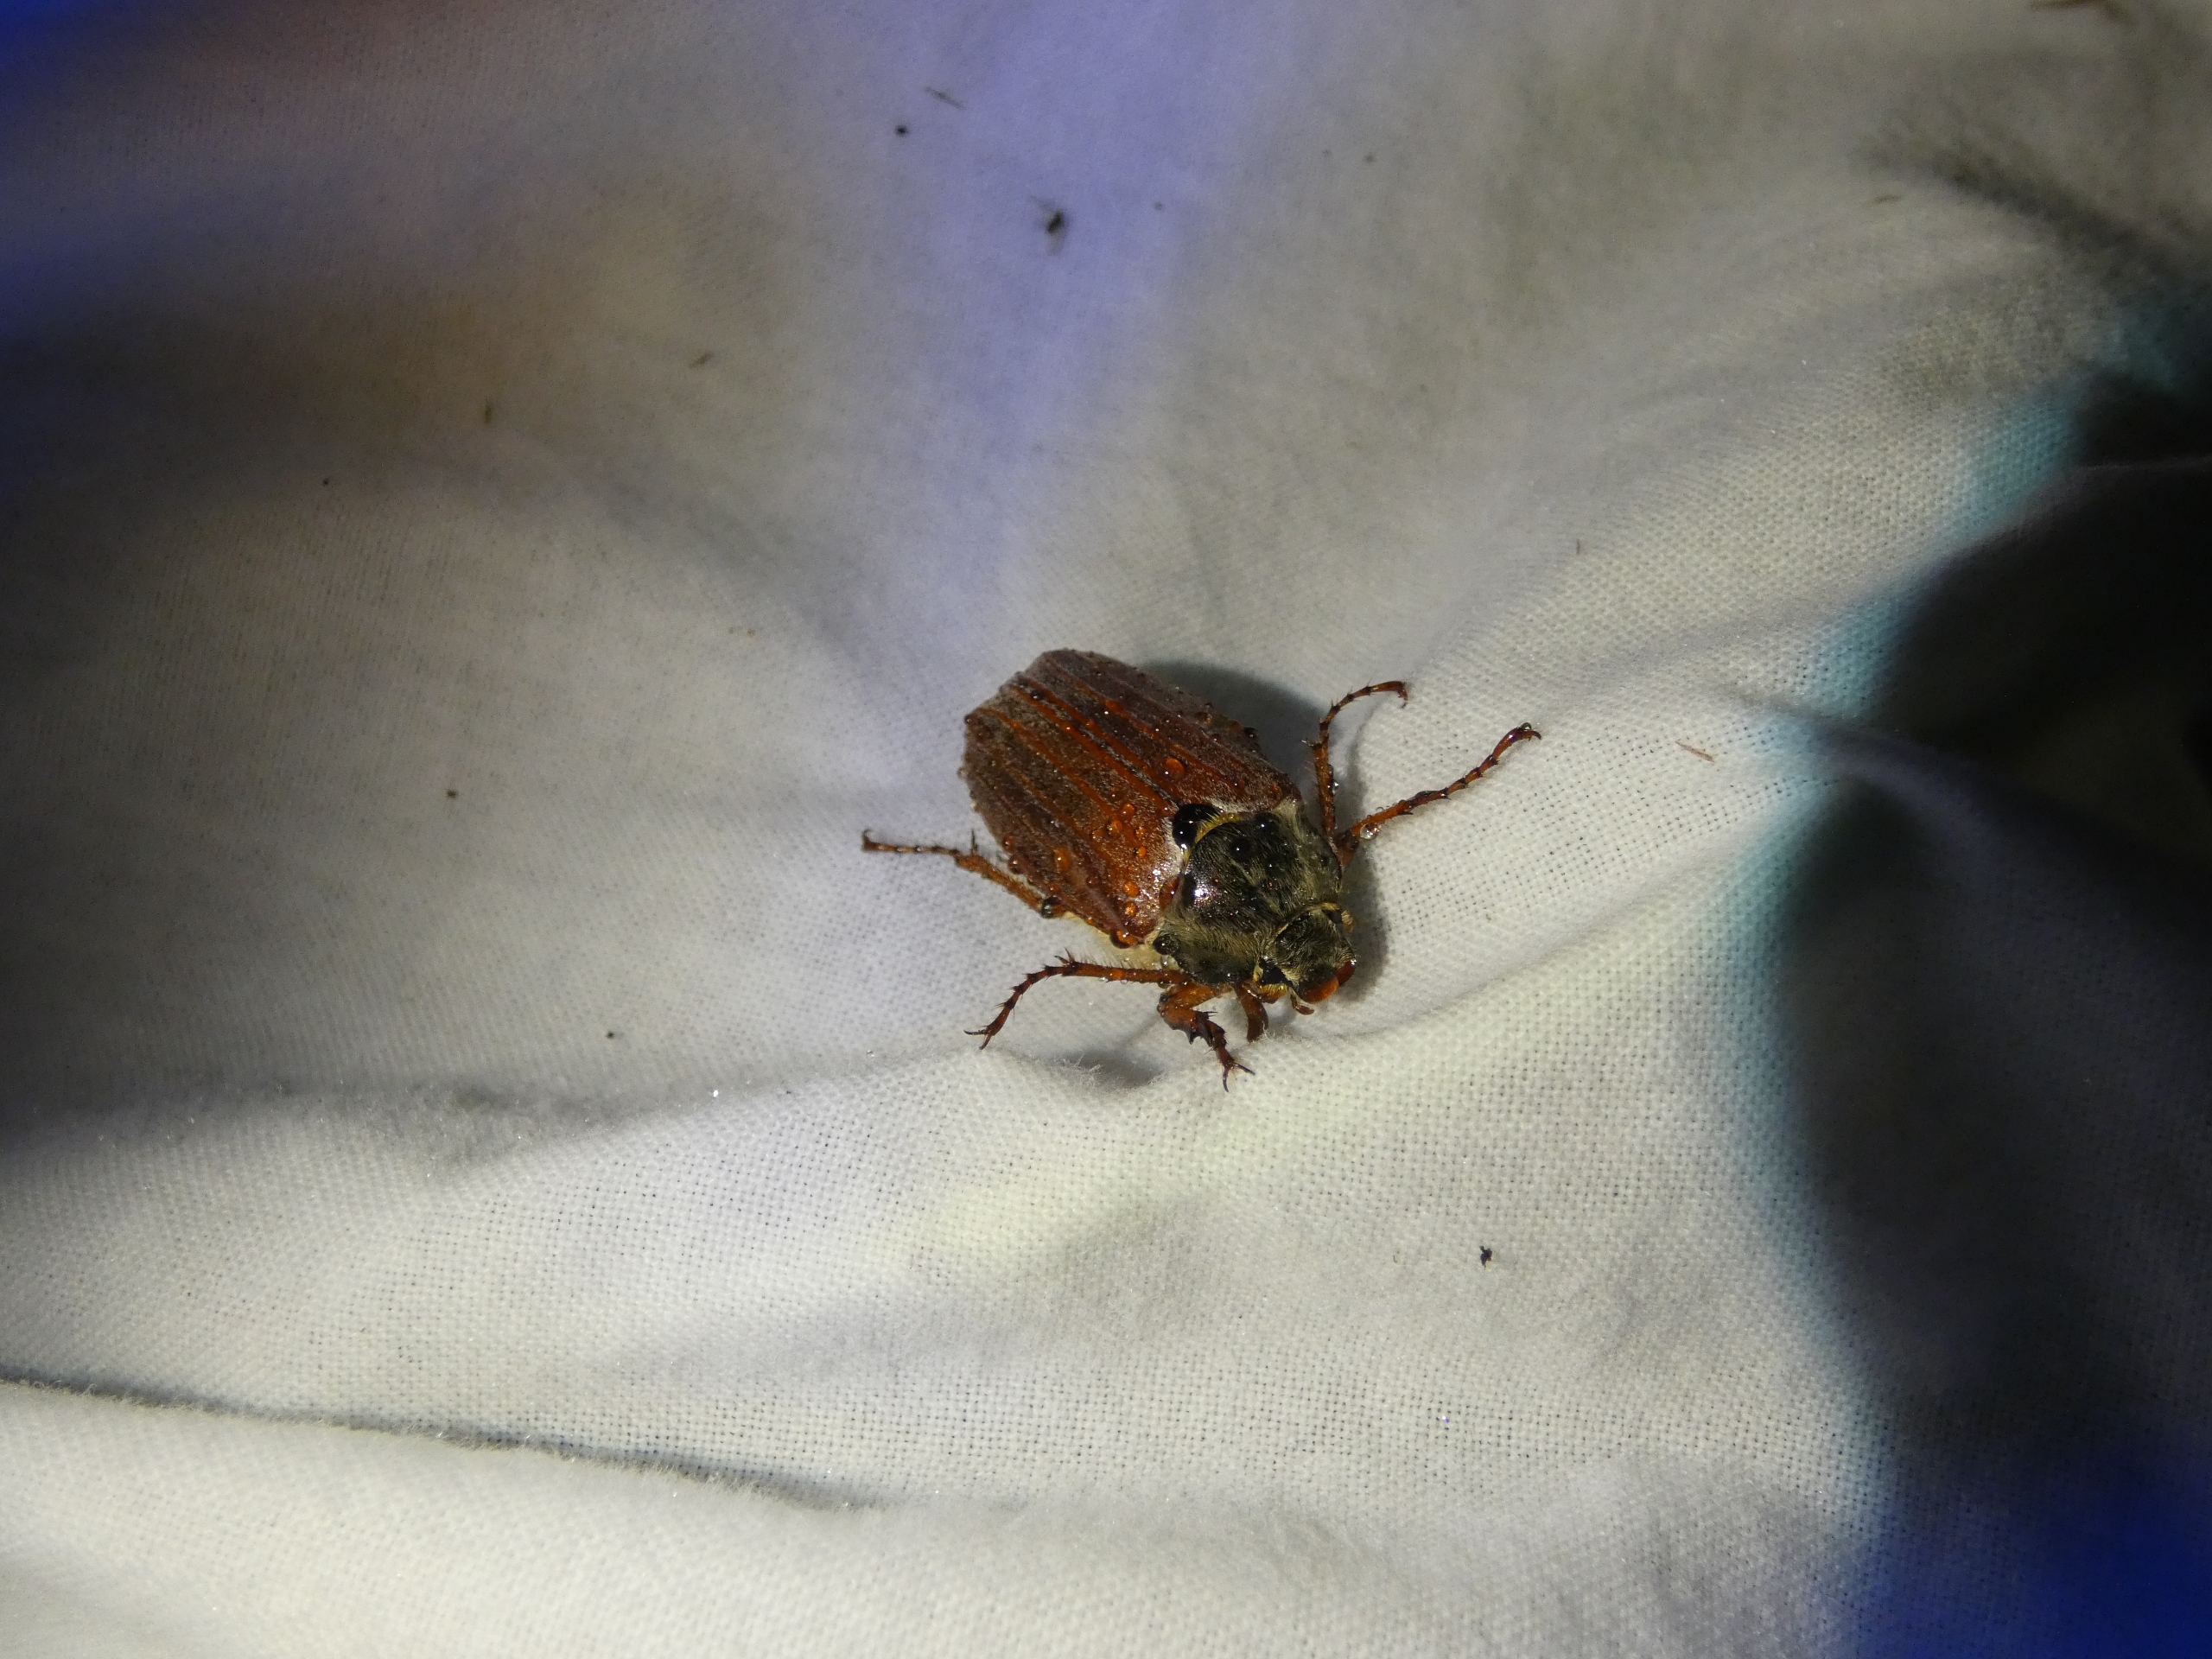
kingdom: Animalia
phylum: Arthropoda
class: Insecta
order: Coleoptera
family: Scarabaeidae
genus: Melolontha
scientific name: Melolontha melolontha
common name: Almindelig oldenborre
